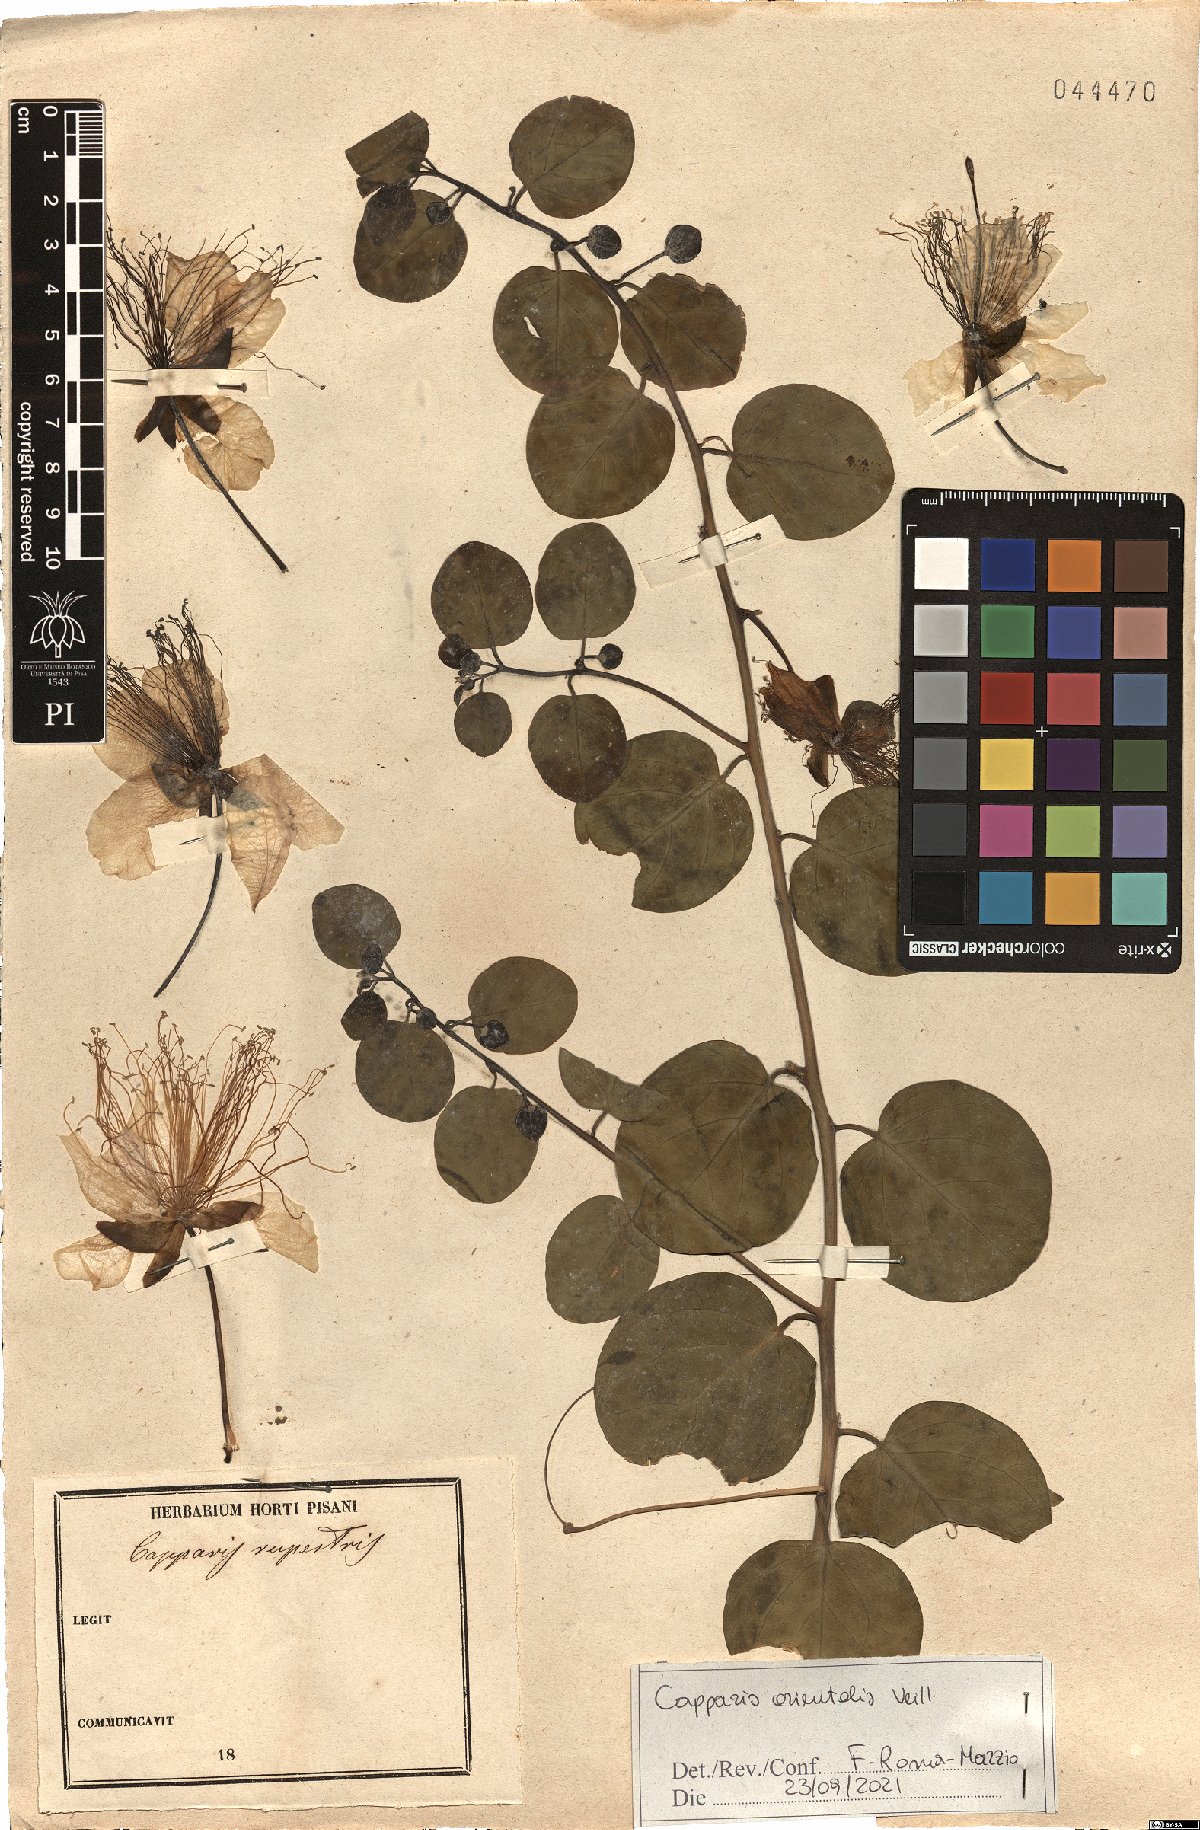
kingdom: Plantae
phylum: Tracheophyta
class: Magnoliopsida
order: Brassicales
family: Capparaceae
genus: Capparis
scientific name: Capparis spinosa
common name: Caper
